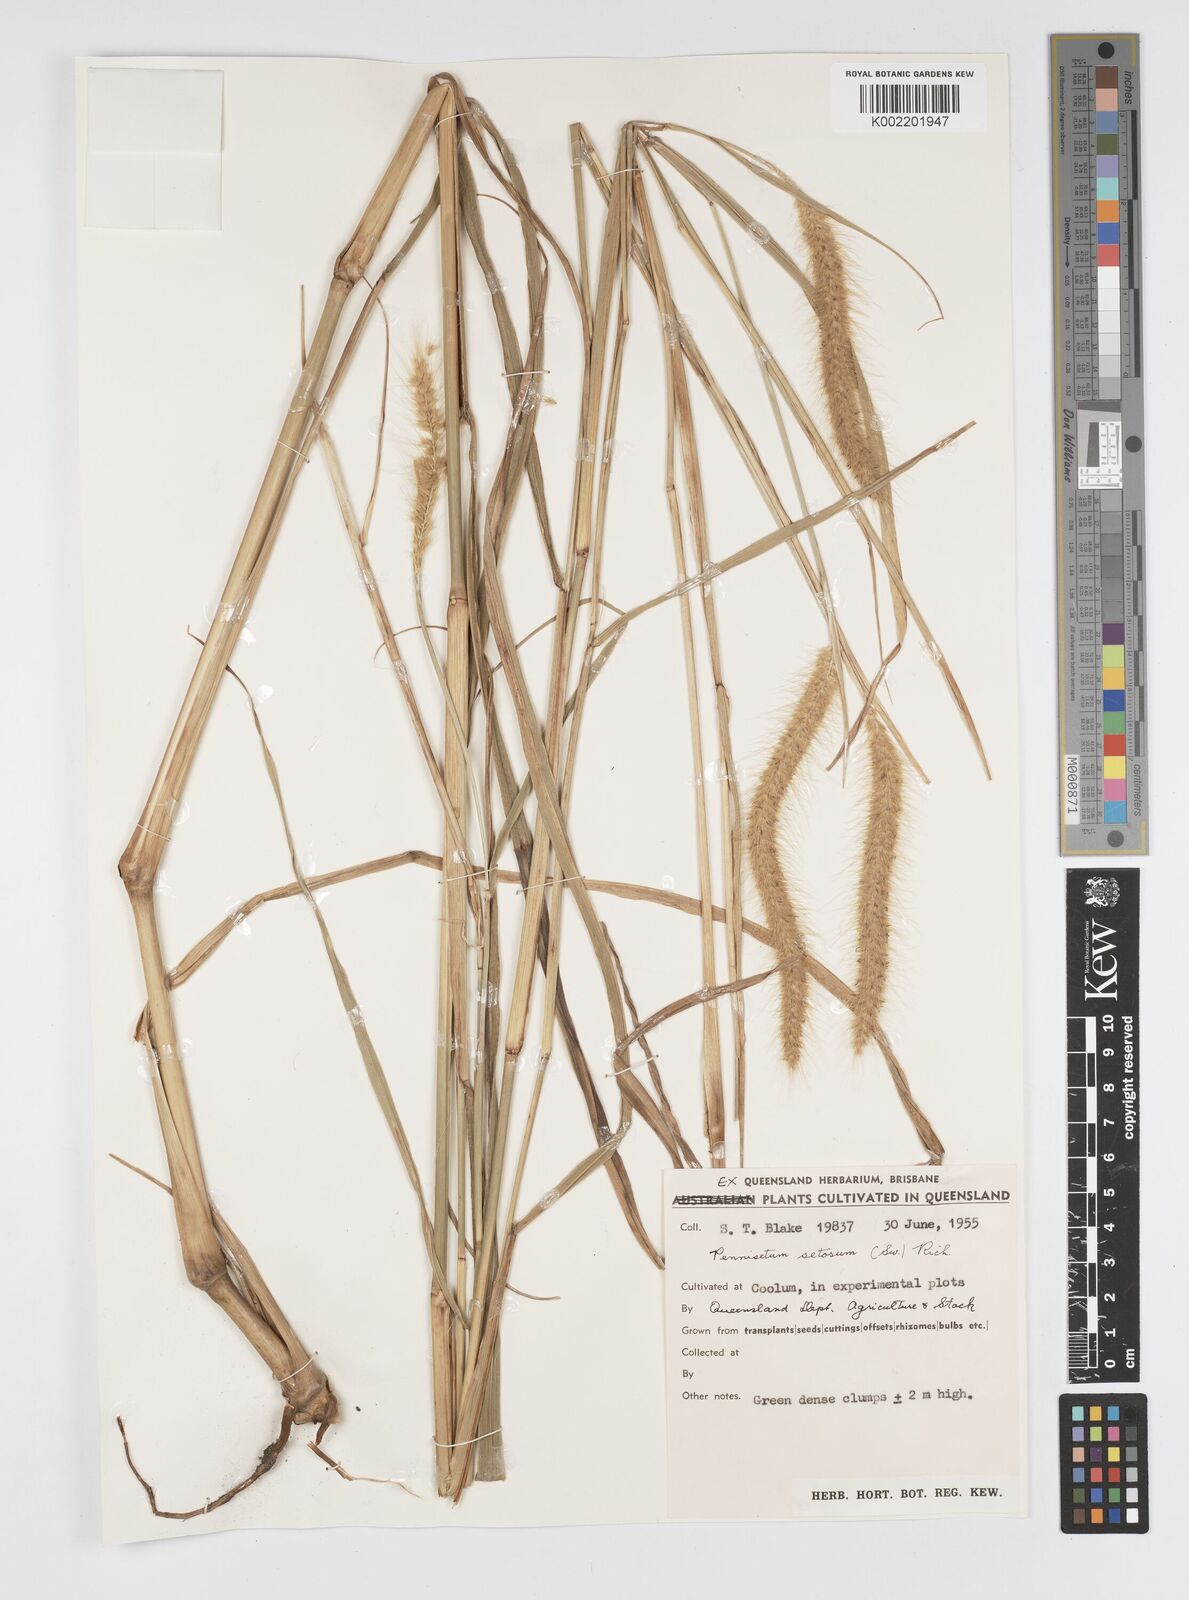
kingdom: Plantae
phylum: Tracheophyta
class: Liliopsida
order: Poales
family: Poaceae
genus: Setaria
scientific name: Setaria parviflora
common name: Knotroot bristle-grass
